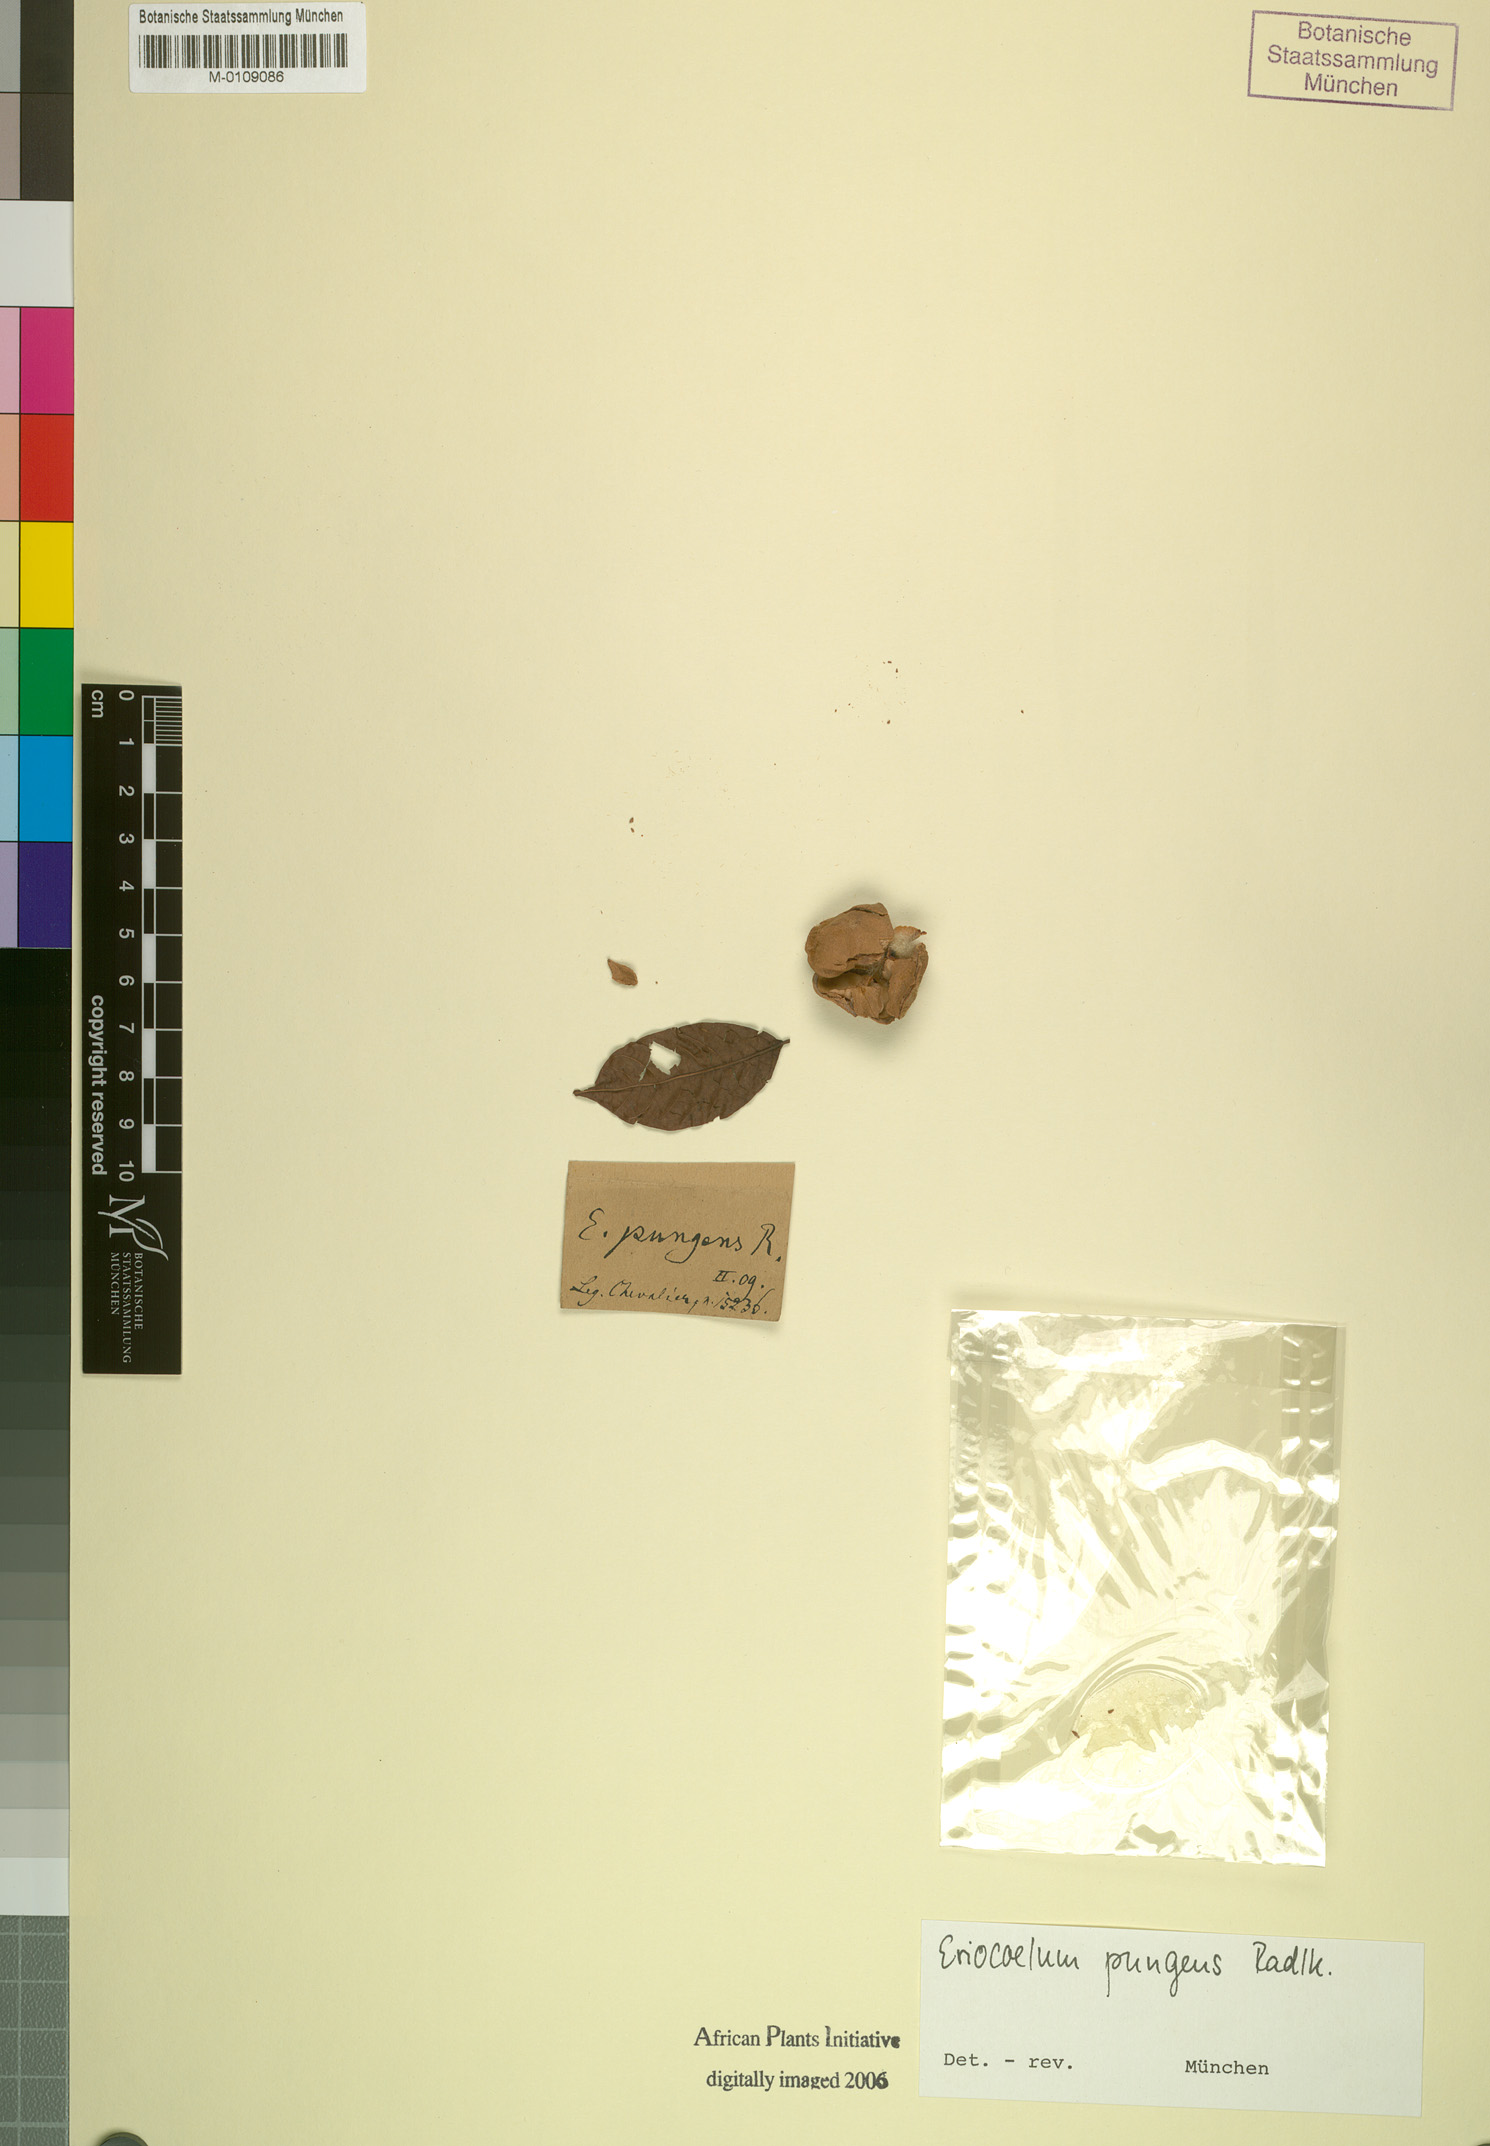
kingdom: Plantae
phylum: Tracheophyta
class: Magnoliopsida
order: Sapindales
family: Sapindaceae
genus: Eriocoelum
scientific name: Eriocoelum pungens
